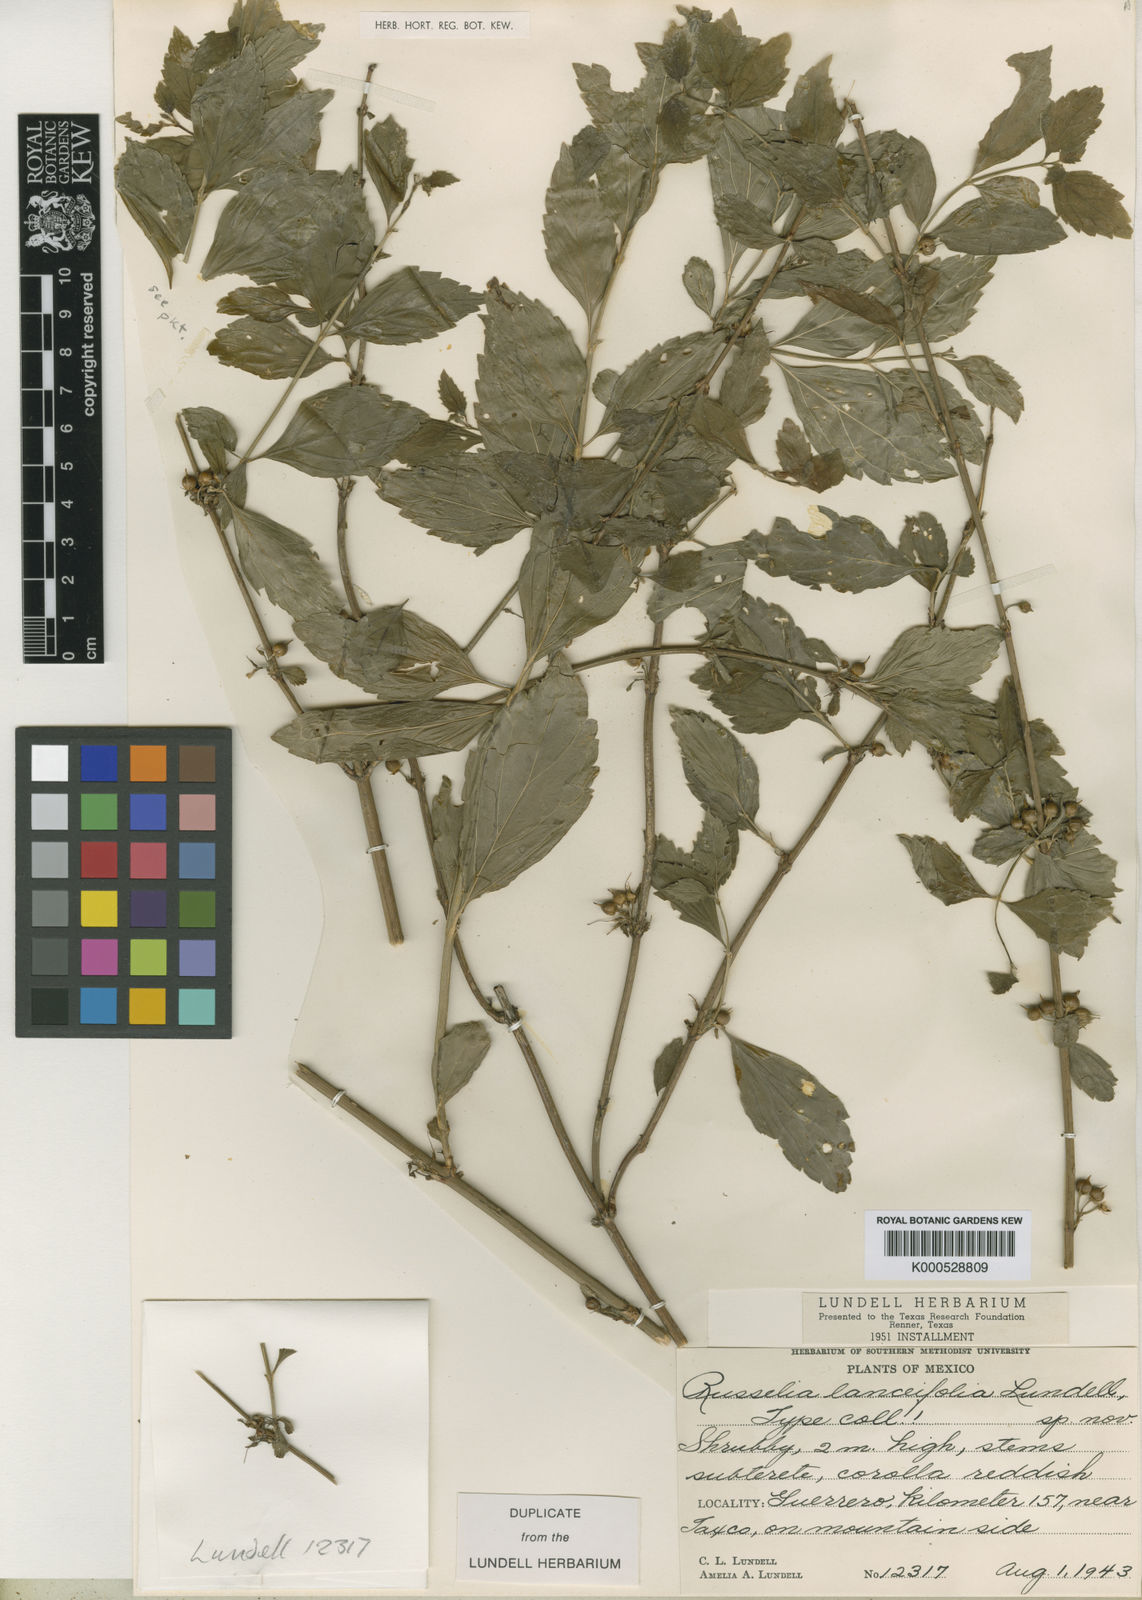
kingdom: Plantae
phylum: Tracheophyta
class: Magnoliopsida
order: Lamiales
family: Plantaginaceae
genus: Russelia
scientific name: Russelia lanceifolia
